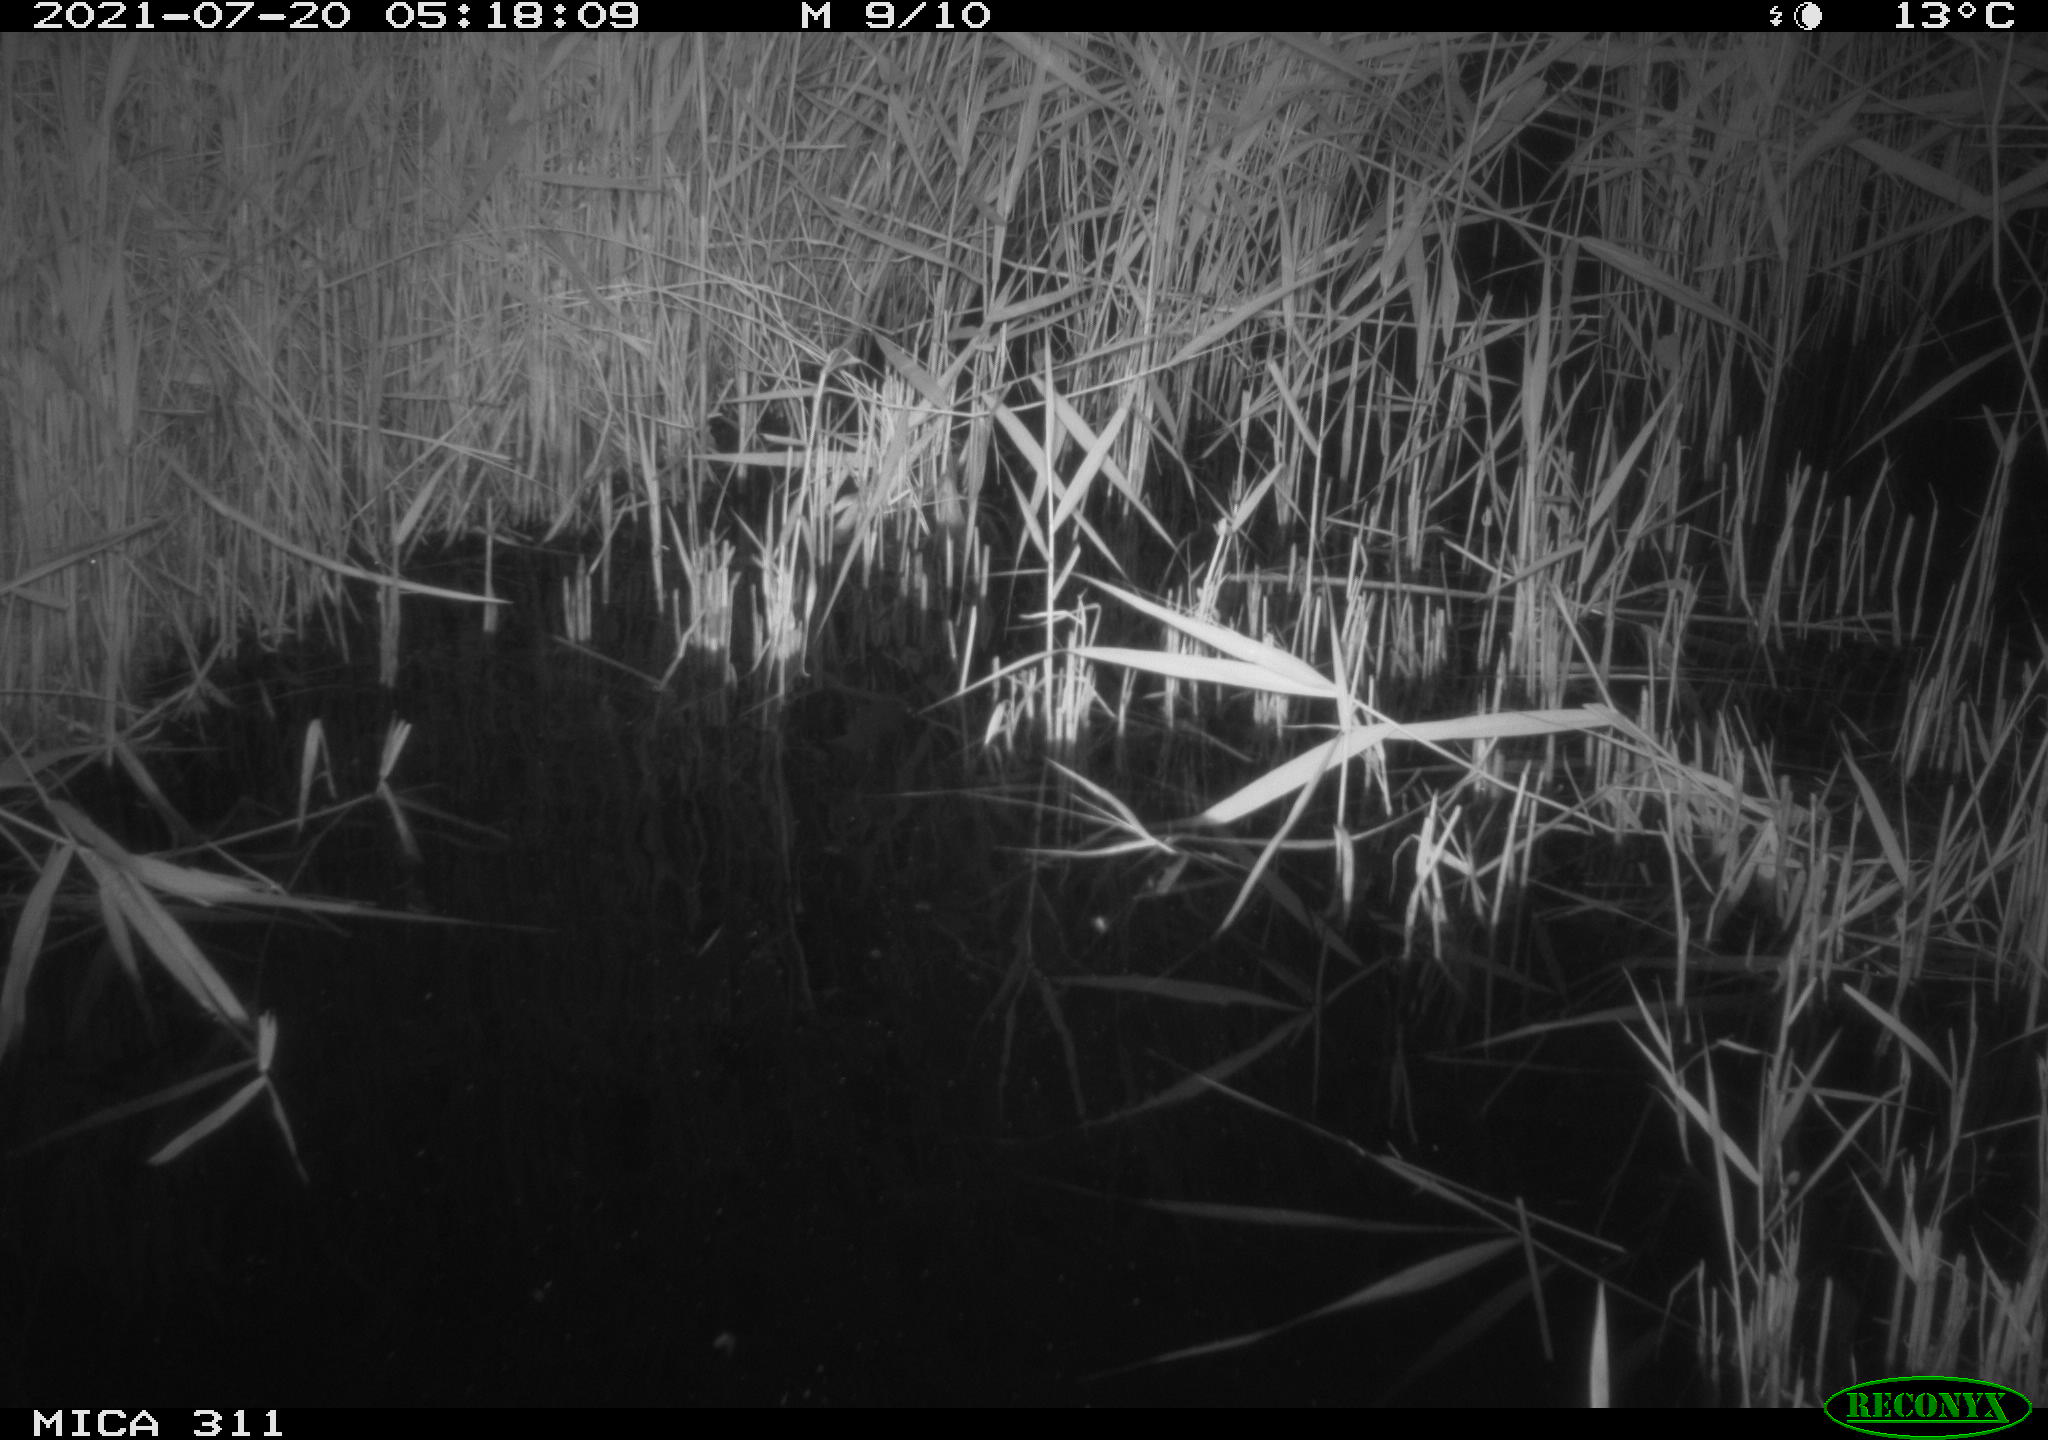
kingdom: Animalia
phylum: Chordata
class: Mammalia
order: Rodentia
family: Muridae
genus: Rattus
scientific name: Rattus norvegicus
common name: Brown rat
